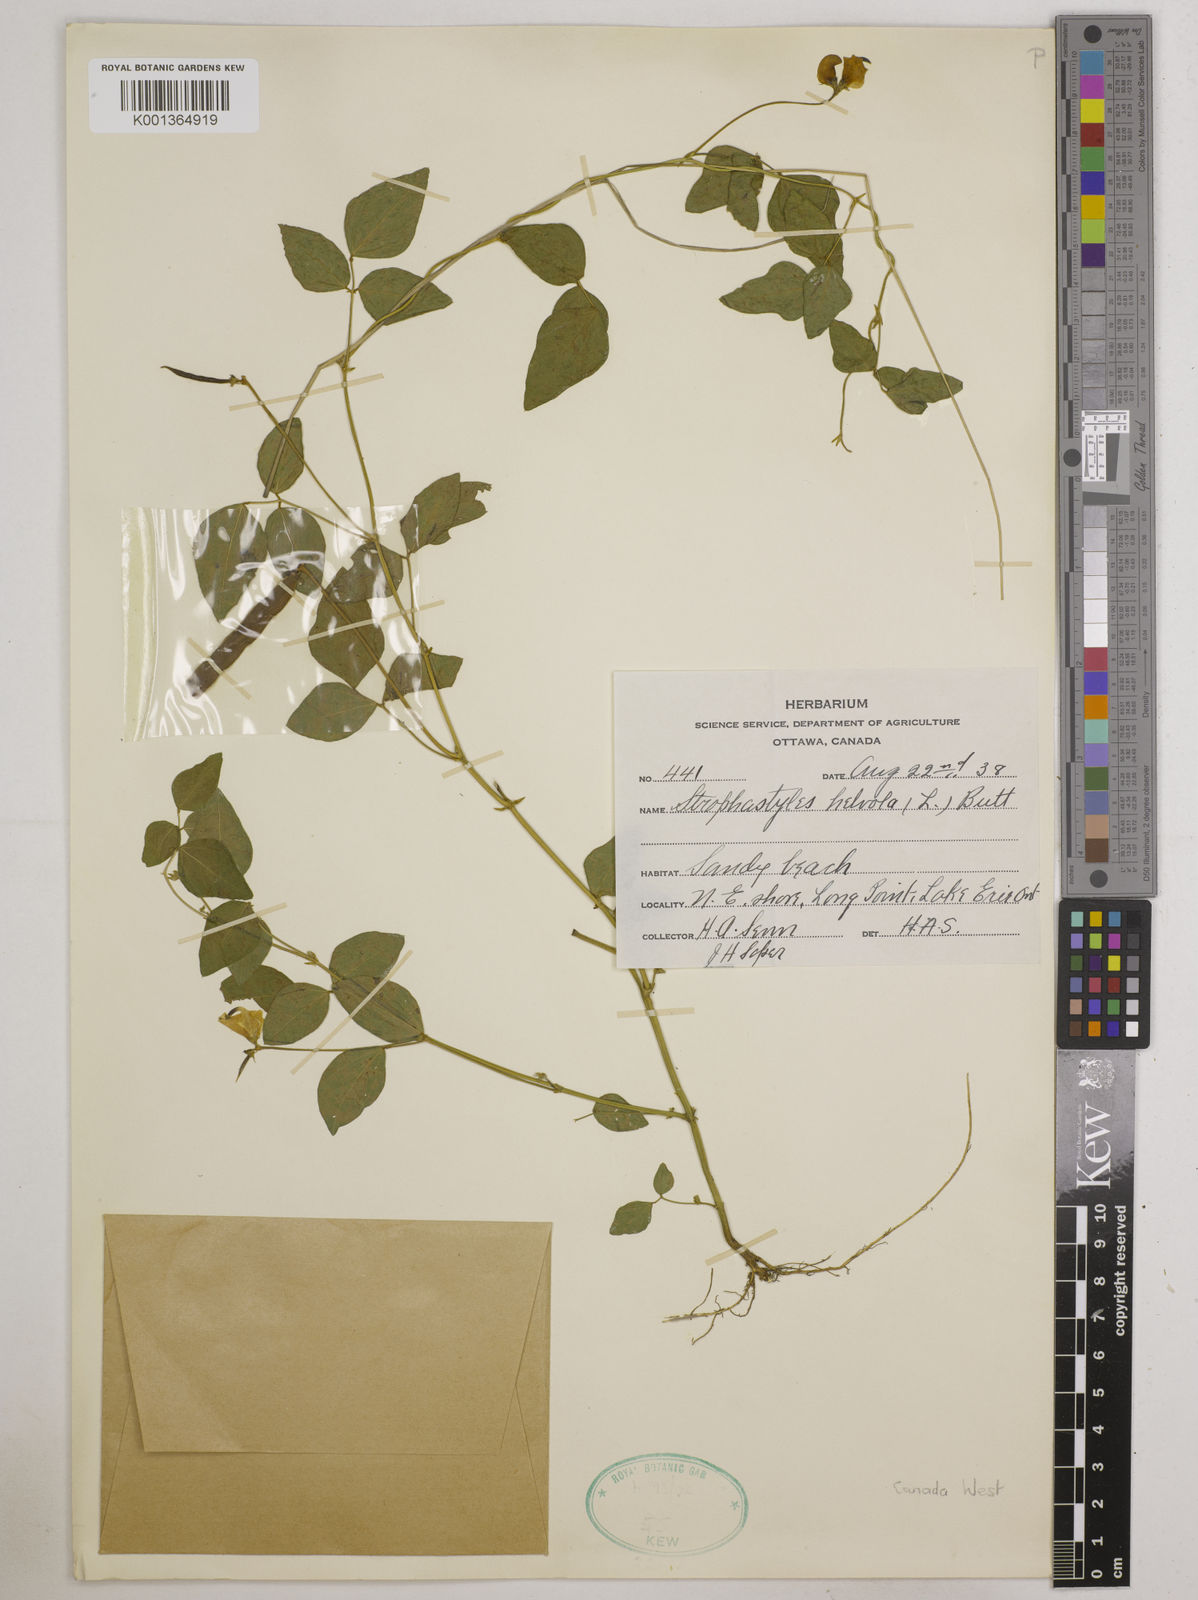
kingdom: Plantae
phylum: Tracheophyta
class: Magnoliopsida
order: Fabales
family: Fabaceae
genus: Strophostyles
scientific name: Strophostyles
